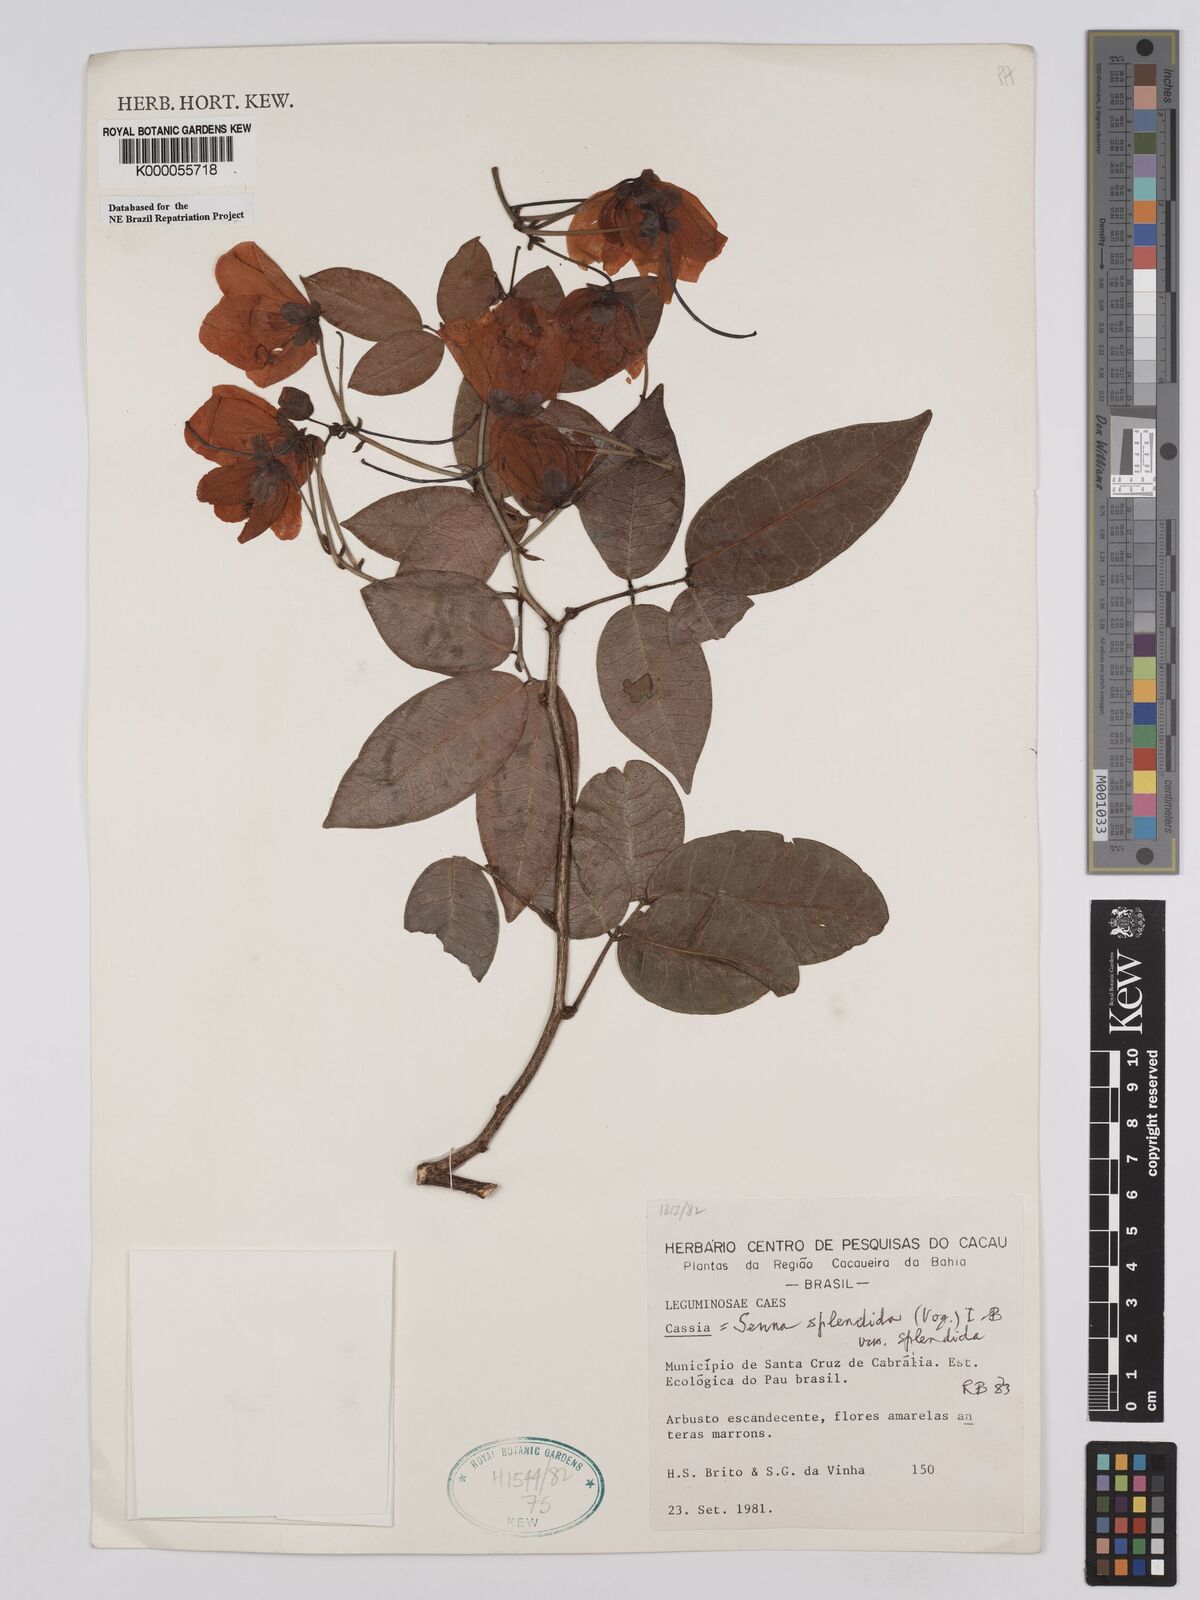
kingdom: Plantae
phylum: Tracheophyta
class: Magnoliopsida
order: Fabales
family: Fabaceae
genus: Senna
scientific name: Senna splendida
